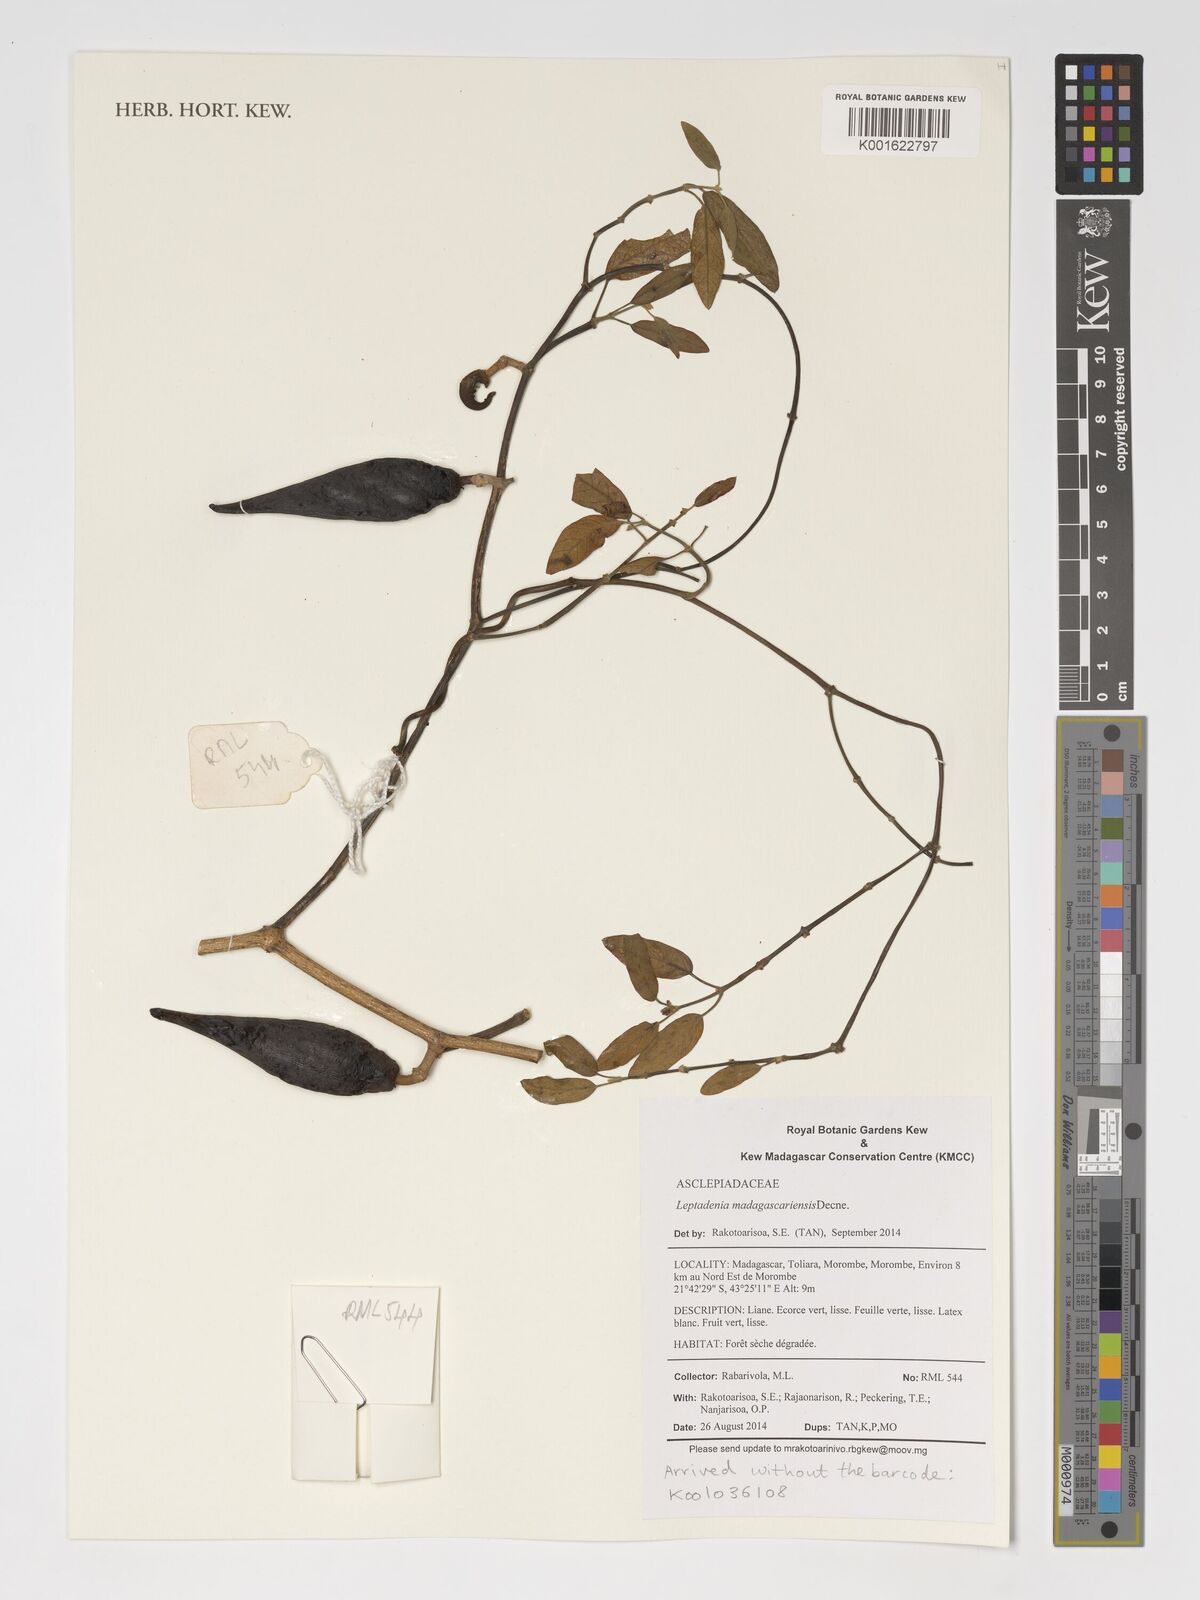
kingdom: Plantae
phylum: Tracheophyta
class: Magnoliopsida
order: Gentianales
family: Apocynaceae
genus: Leptadenia
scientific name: Leptadenia madagascariensis
